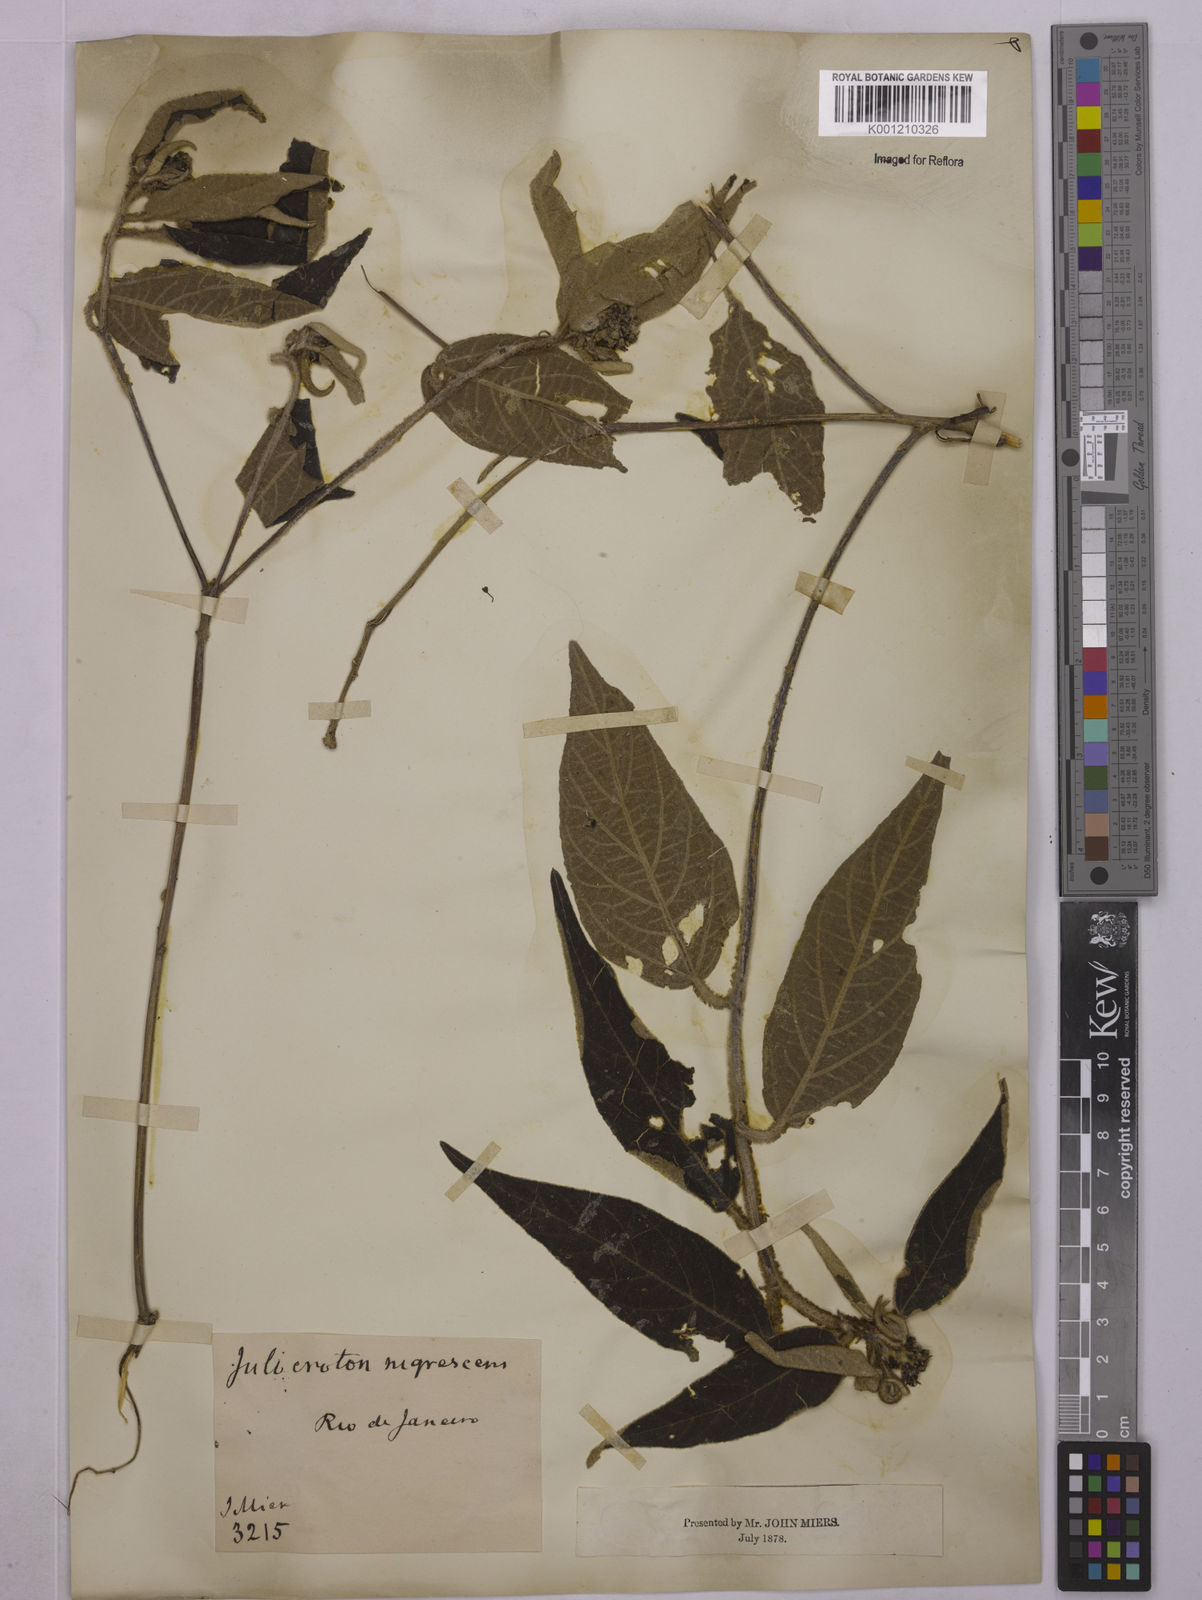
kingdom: Plantae
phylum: Tracheophyta
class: Magnoliopsida
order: Malpighiales
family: Euphorbiaceae
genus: Croton
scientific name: Croton gnaphaloides
